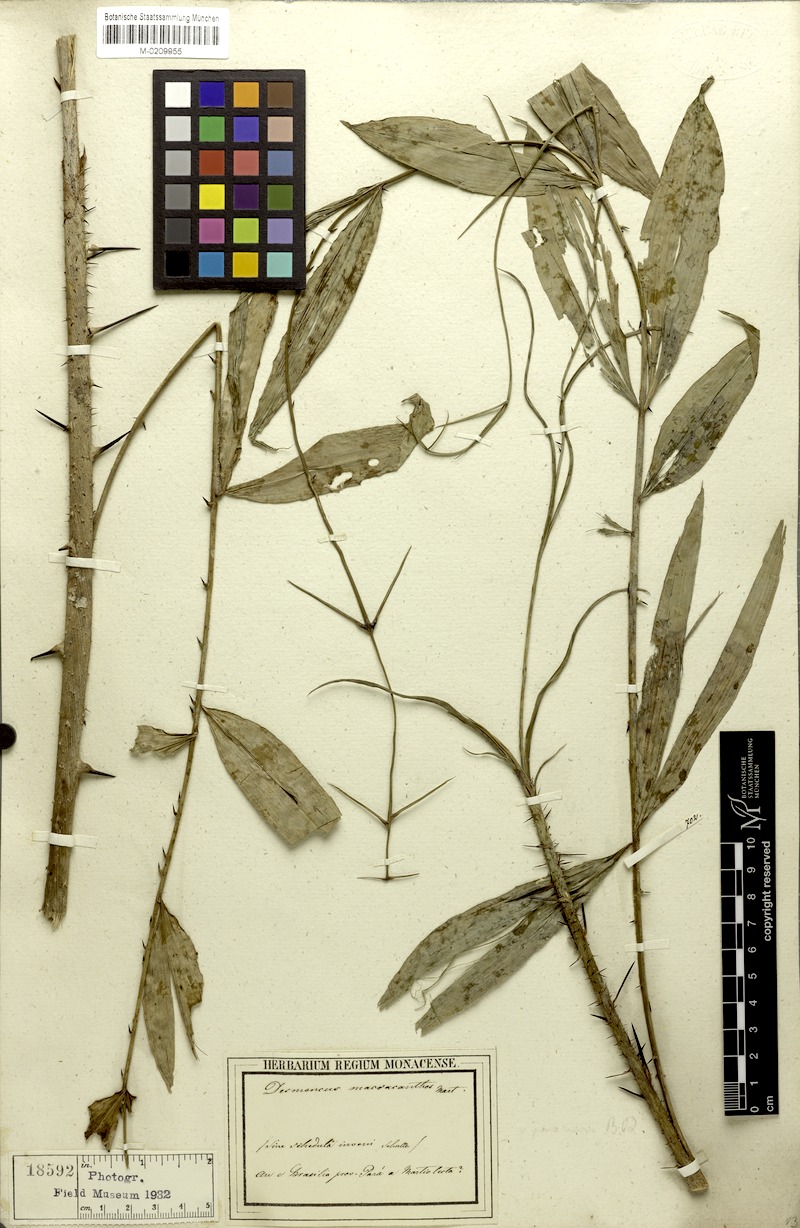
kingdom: Plantae
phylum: Tracheophyta
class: Liliopsida
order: Arecales
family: Arecaceae
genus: Desmoncus
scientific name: Desmoncus polyacanthos
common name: Suriname bramble palm
